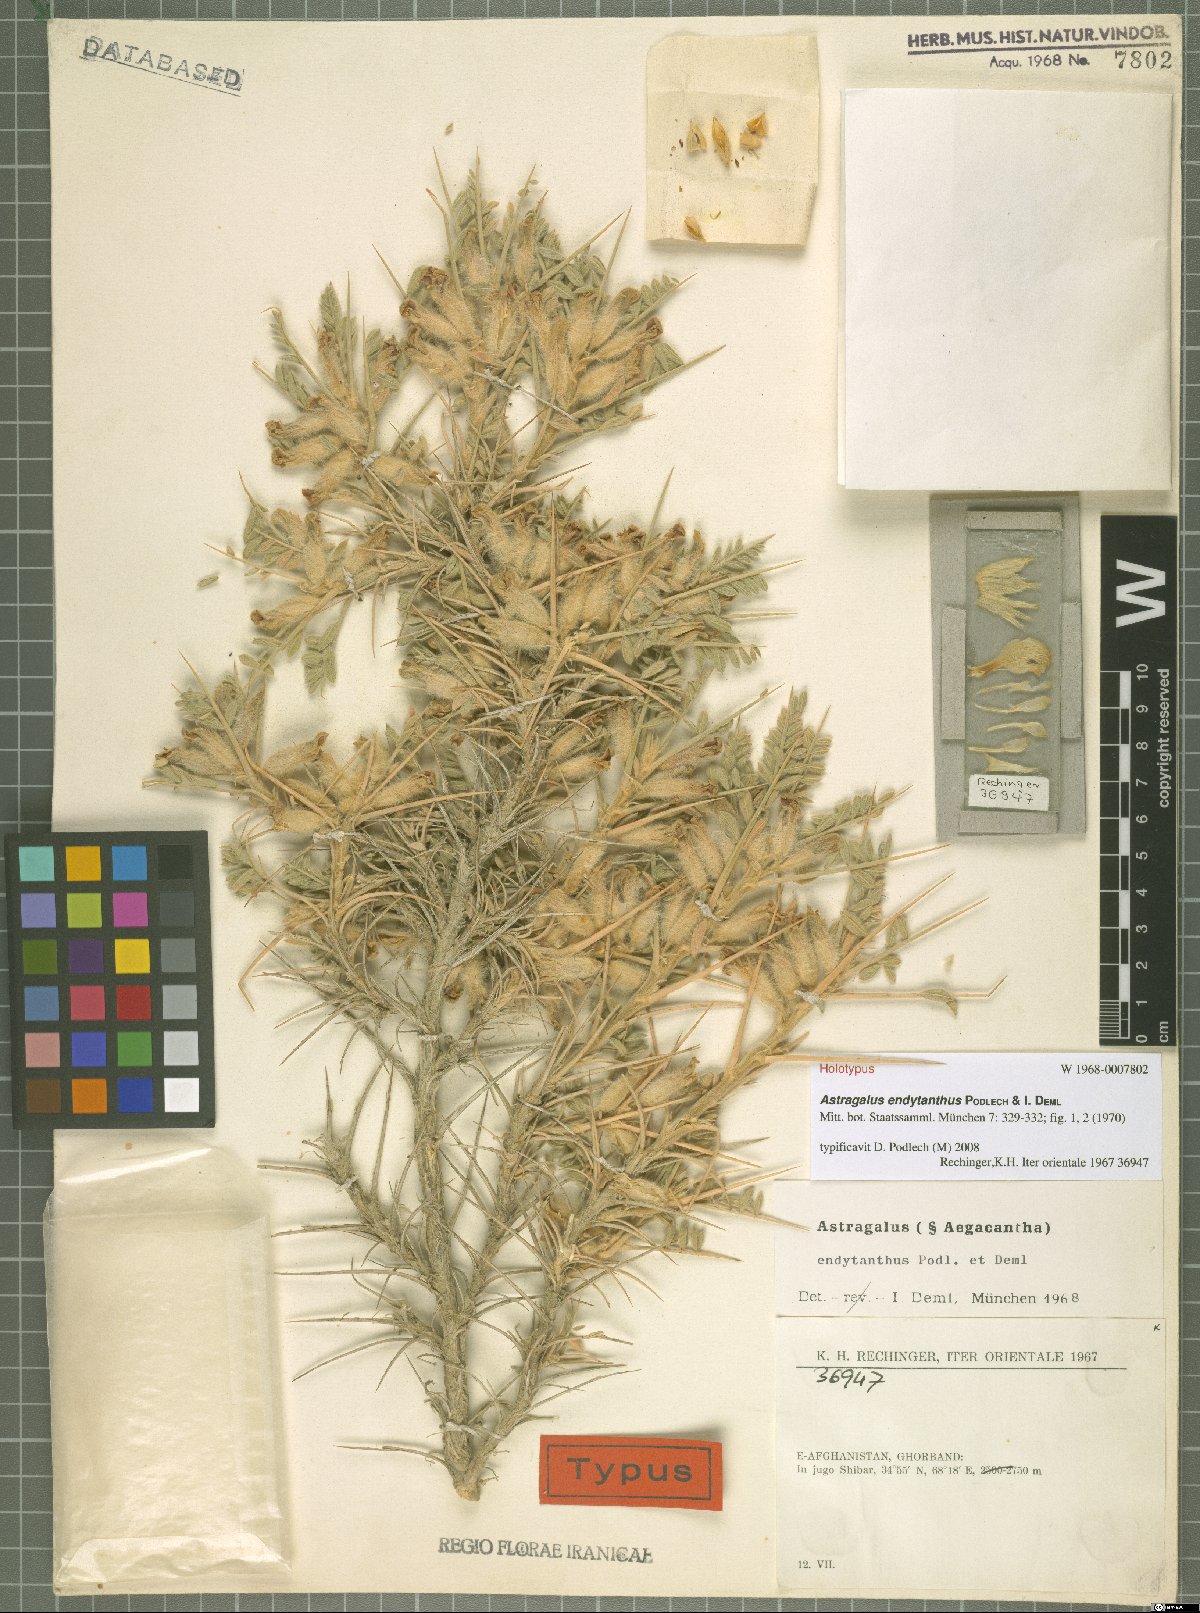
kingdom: Plantae
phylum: Tracheophyta
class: Magnoliopsida
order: Fabales
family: Fabaceae
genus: Astragalus
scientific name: Astragalus endytanthus
